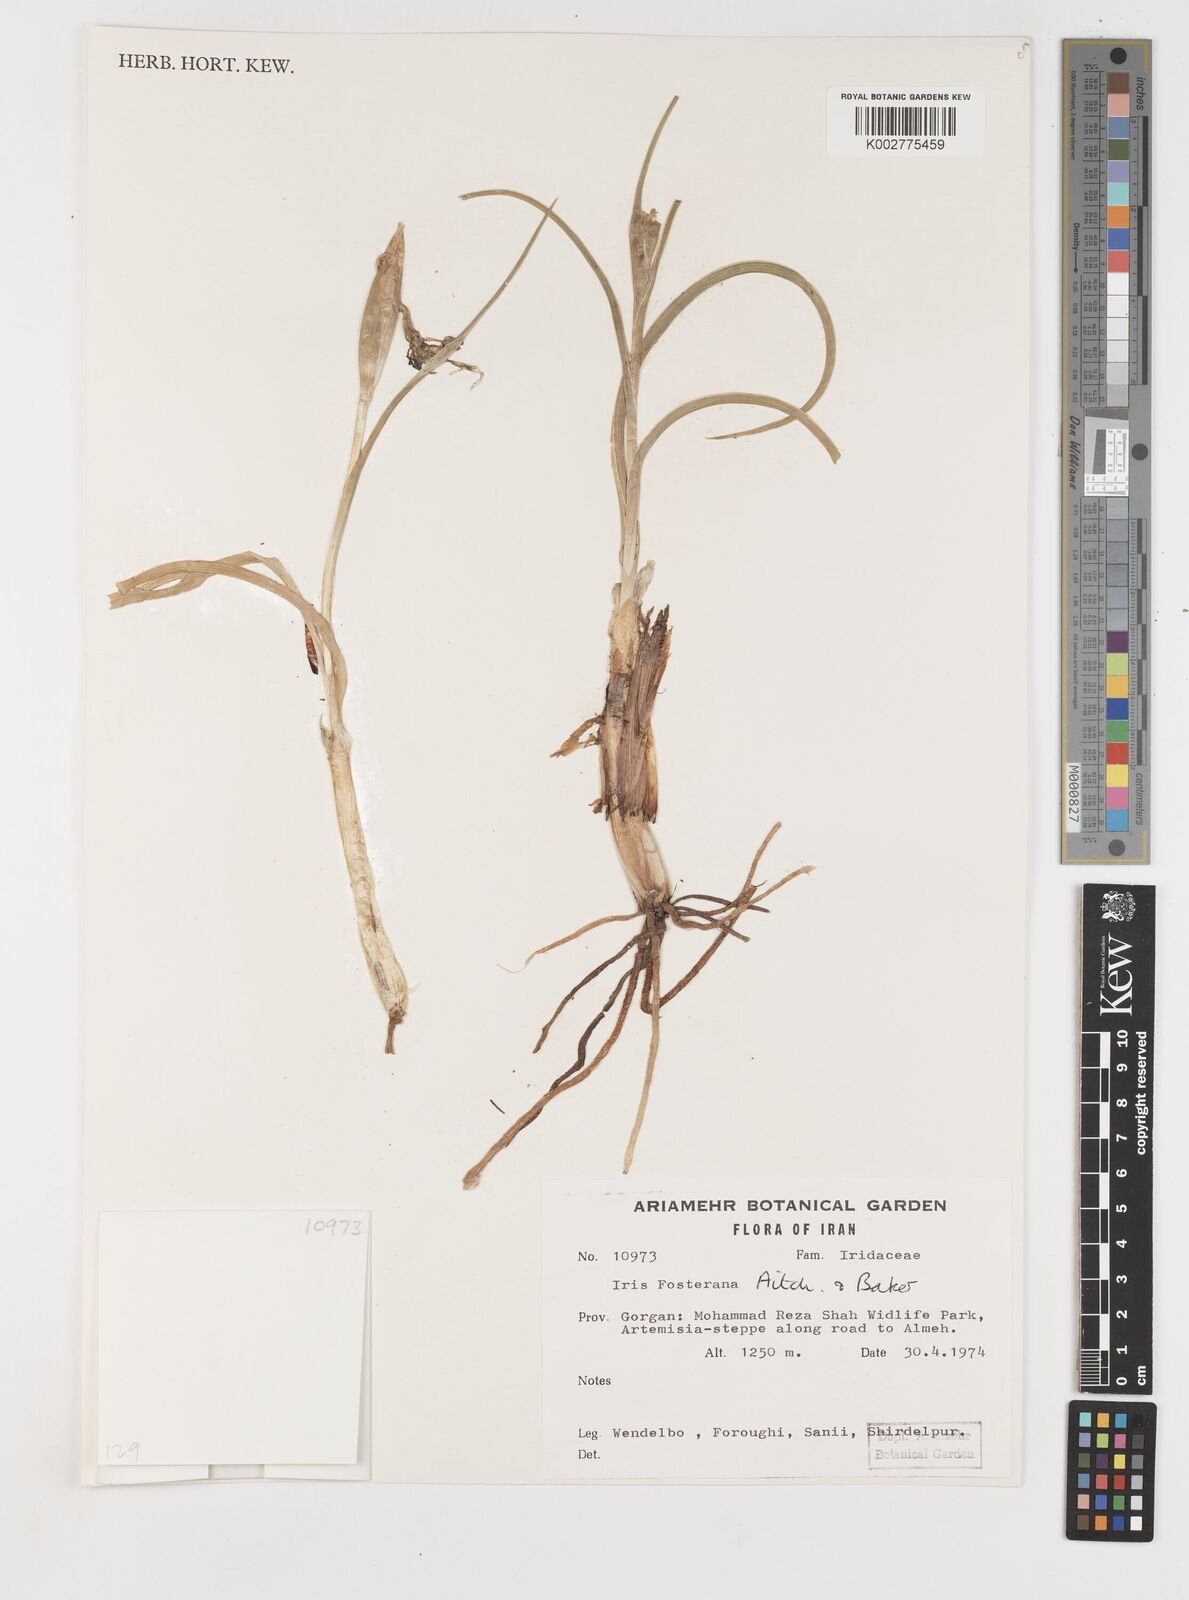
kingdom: Plantae
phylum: Tracheophyta
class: Liliopsida
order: Asparagales
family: Iridaceae
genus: Iris
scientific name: Iris fosteriana
